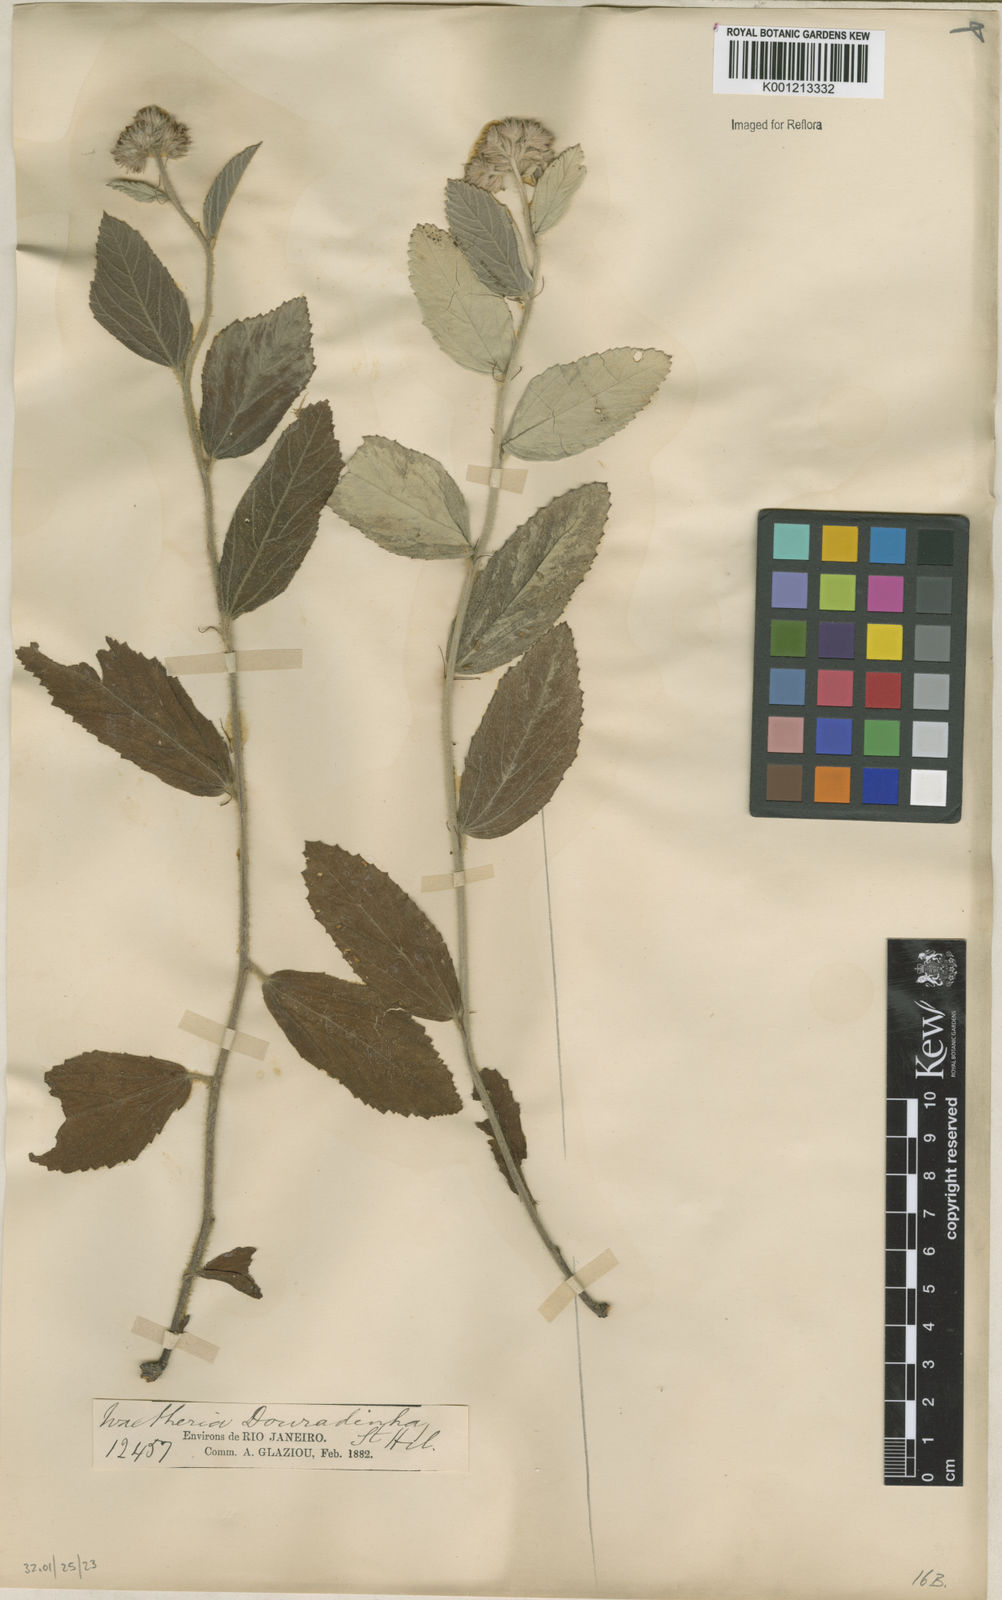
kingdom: Plantae
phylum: Tracheophyta
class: Magnoliopsida
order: Malvales
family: Malvaceae
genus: Waltheria
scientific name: Waltheria communis
